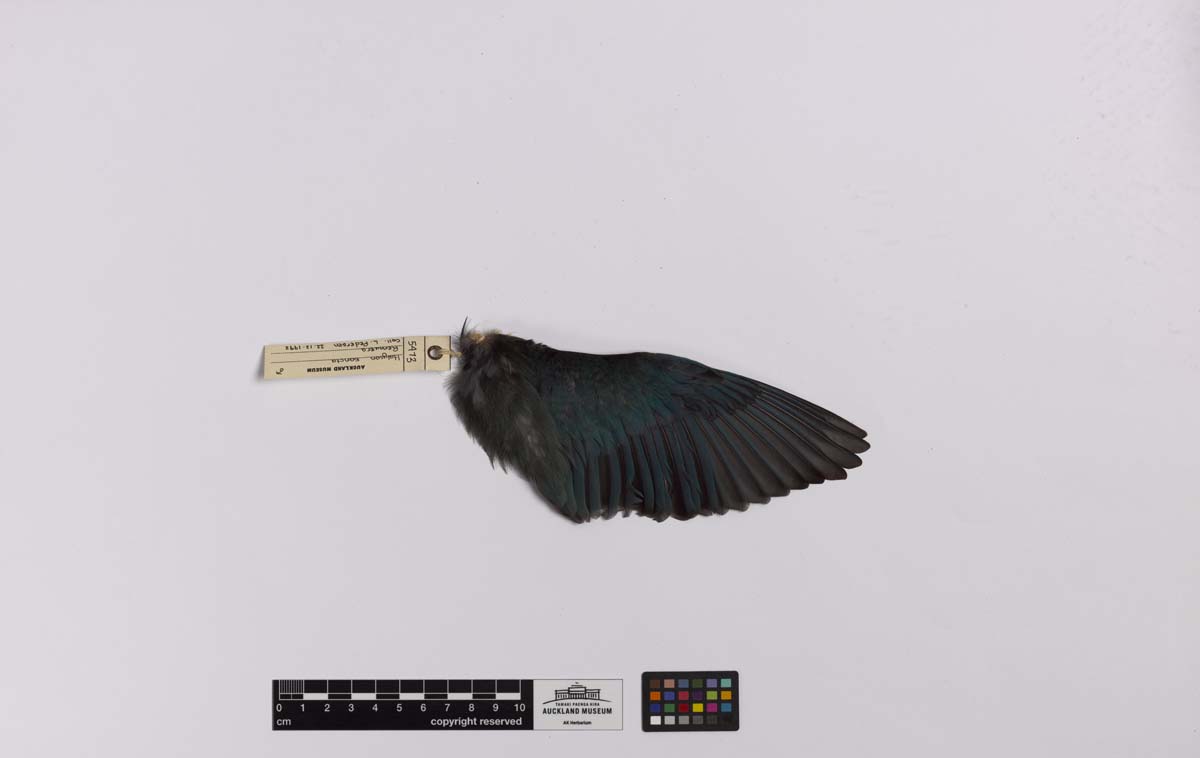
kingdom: Animalia
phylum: Chordata
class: Aves
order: Coraciiformes
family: Alcedinidae
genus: Todiramphus
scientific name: Todiramphus sanctus
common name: Sacred kingfisher
